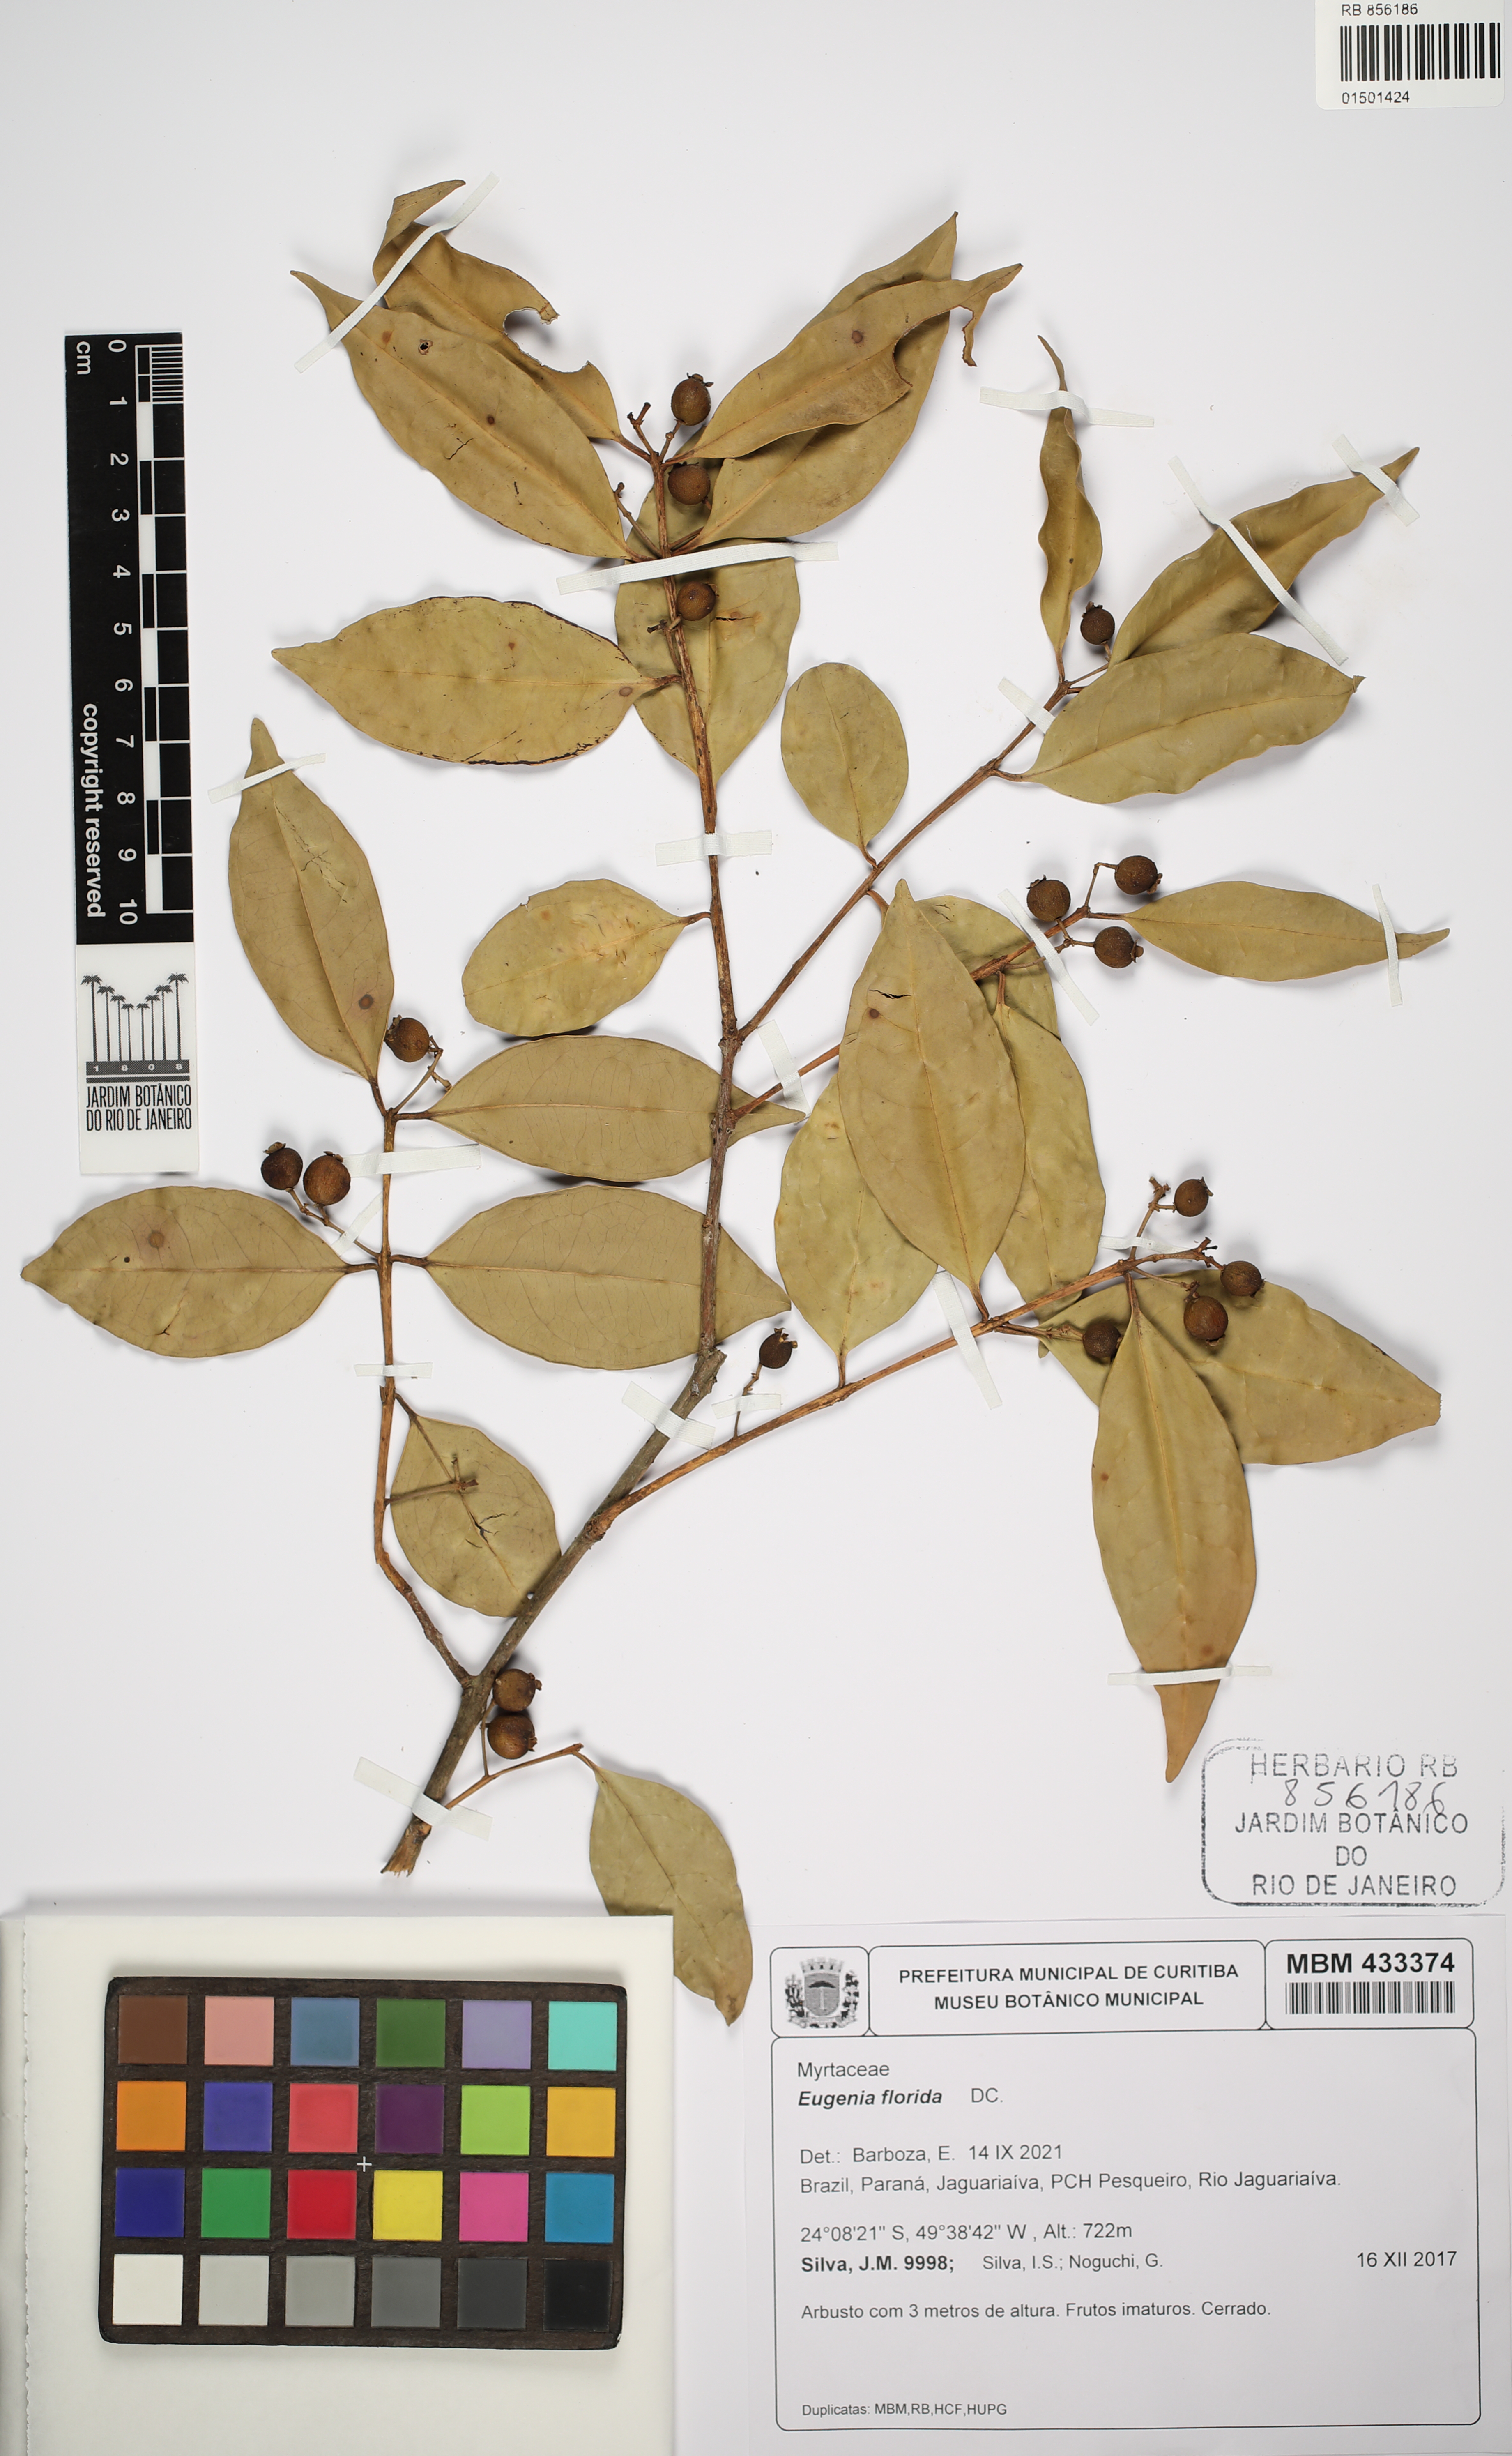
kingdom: Plantae
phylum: Tracheophyta
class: Magnoliopsida
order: Myrtales
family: Myrtaceae
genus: Eugenia
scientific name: Eugenia florida
